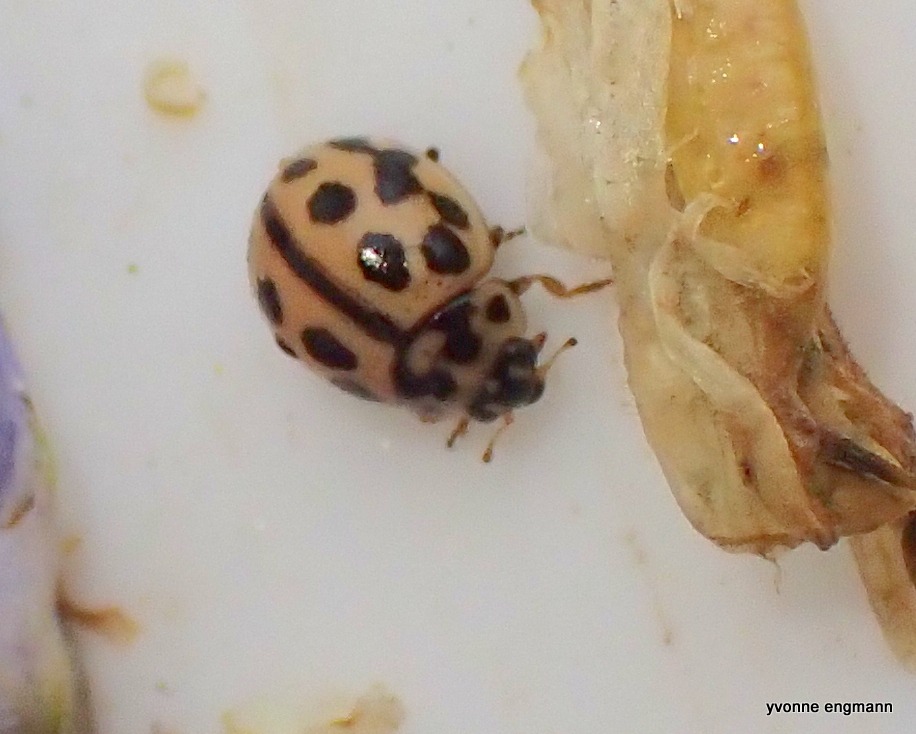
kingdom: Animalia
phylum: Arthropoda
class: Insecta
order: Coleoptera
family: Coccinellidae
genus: Tytthaspis
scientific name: Tytthaspis sedecimpunctata
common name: Sekstenprikket mariehøne
